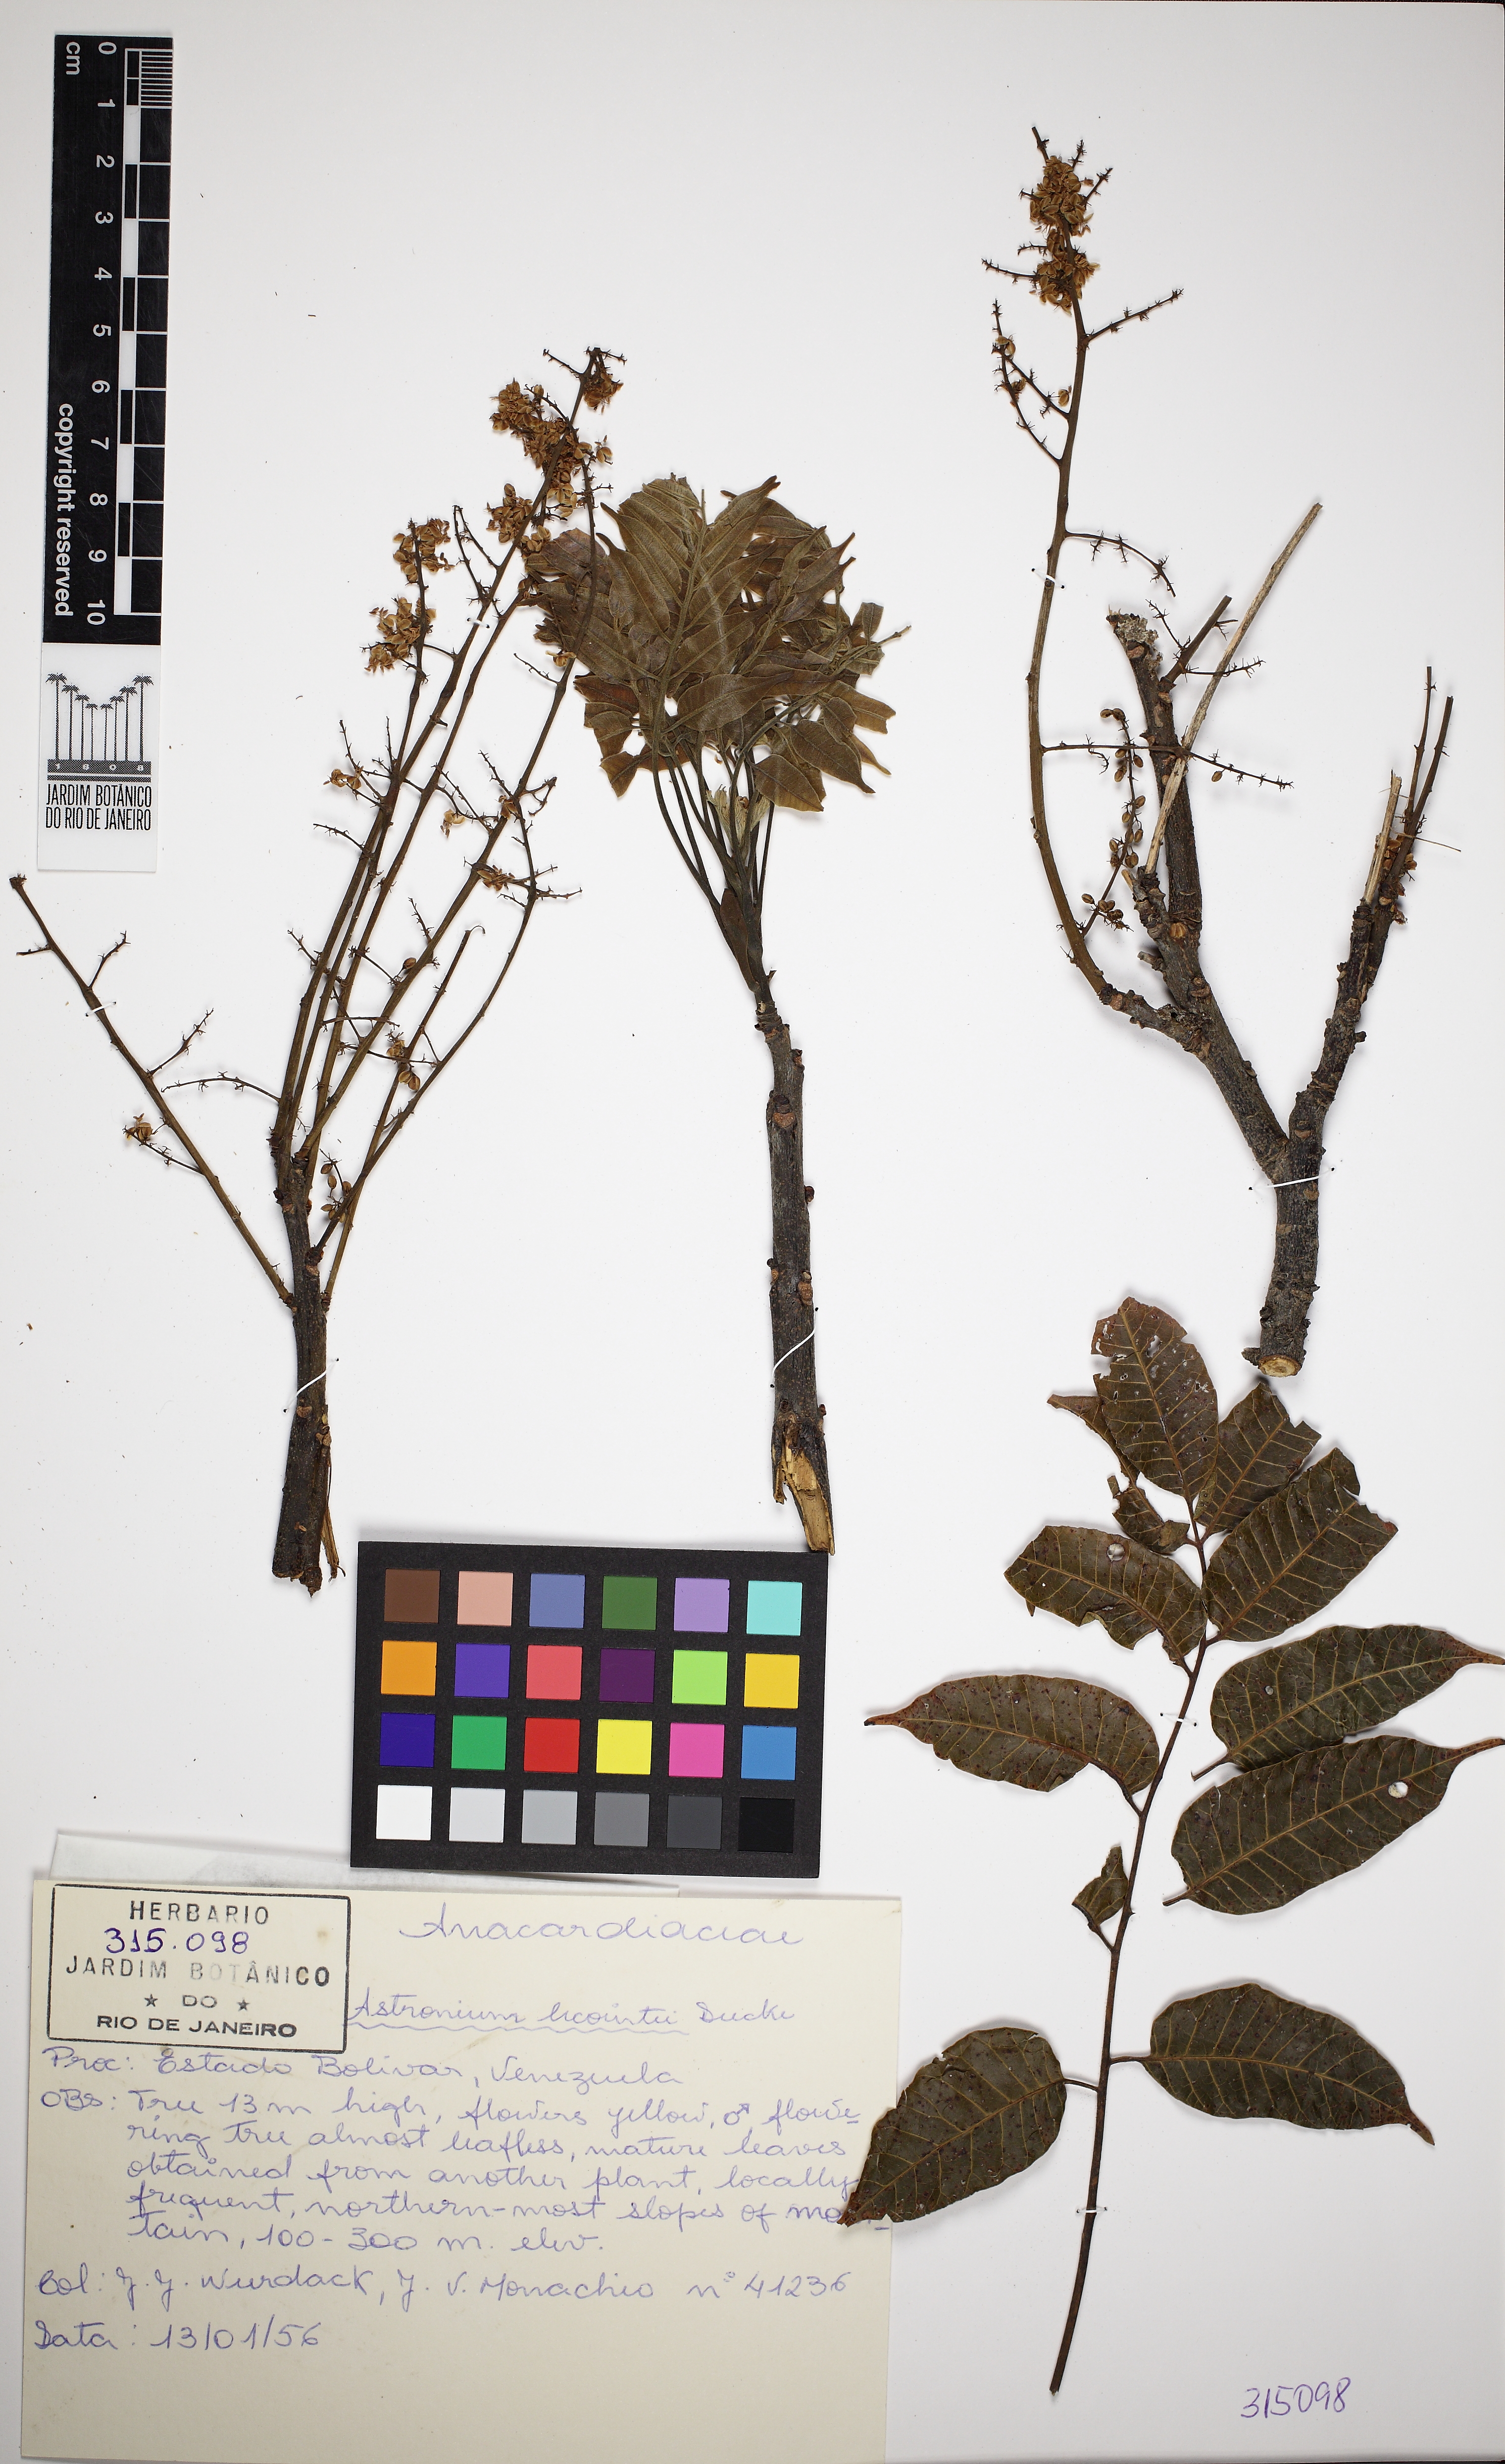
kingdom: Plantae
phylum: Tracheophyta
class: Magnoliopsida
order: Sapindales
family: Anacardiaceae
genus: Astronium
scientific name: Astronium lecointei
